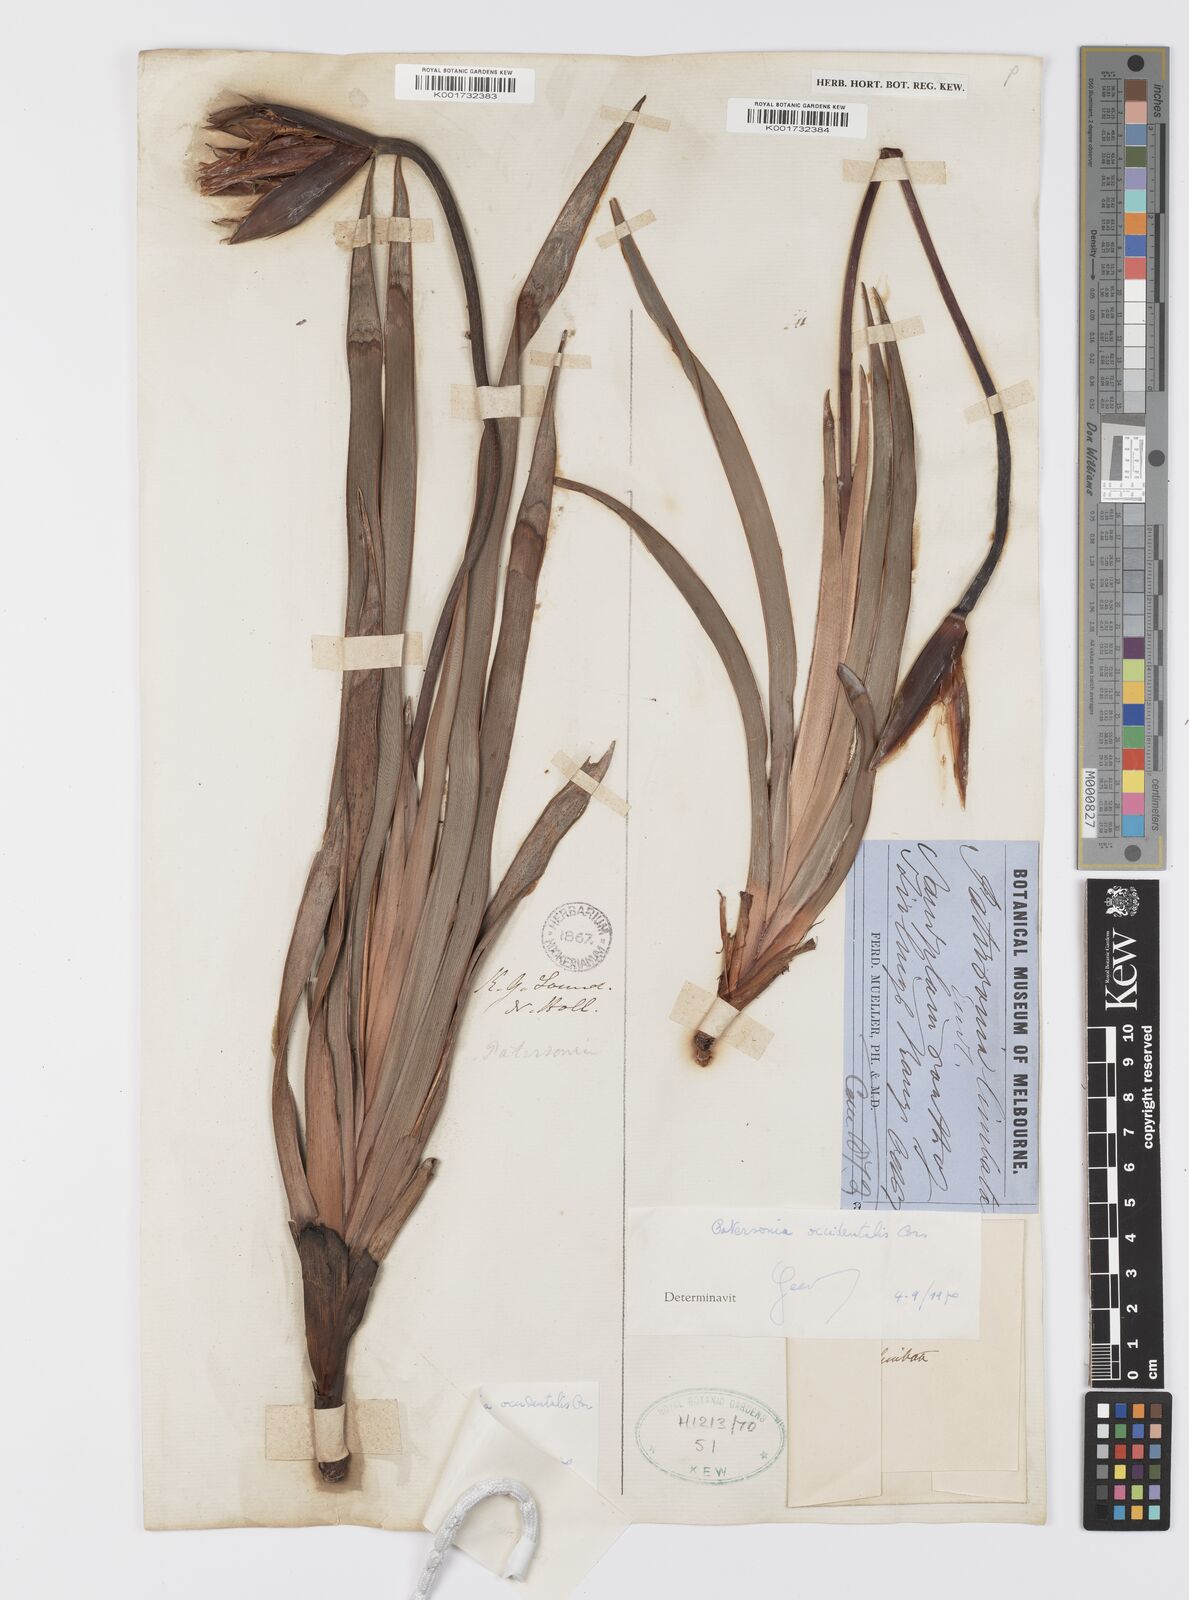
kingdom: Plantae
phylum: Tracheophyta
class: Liliopsida
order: Asparagales
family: Iridaceae
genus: Patersonia
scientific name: Patersonia occidentalis
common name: Long purple-flag
